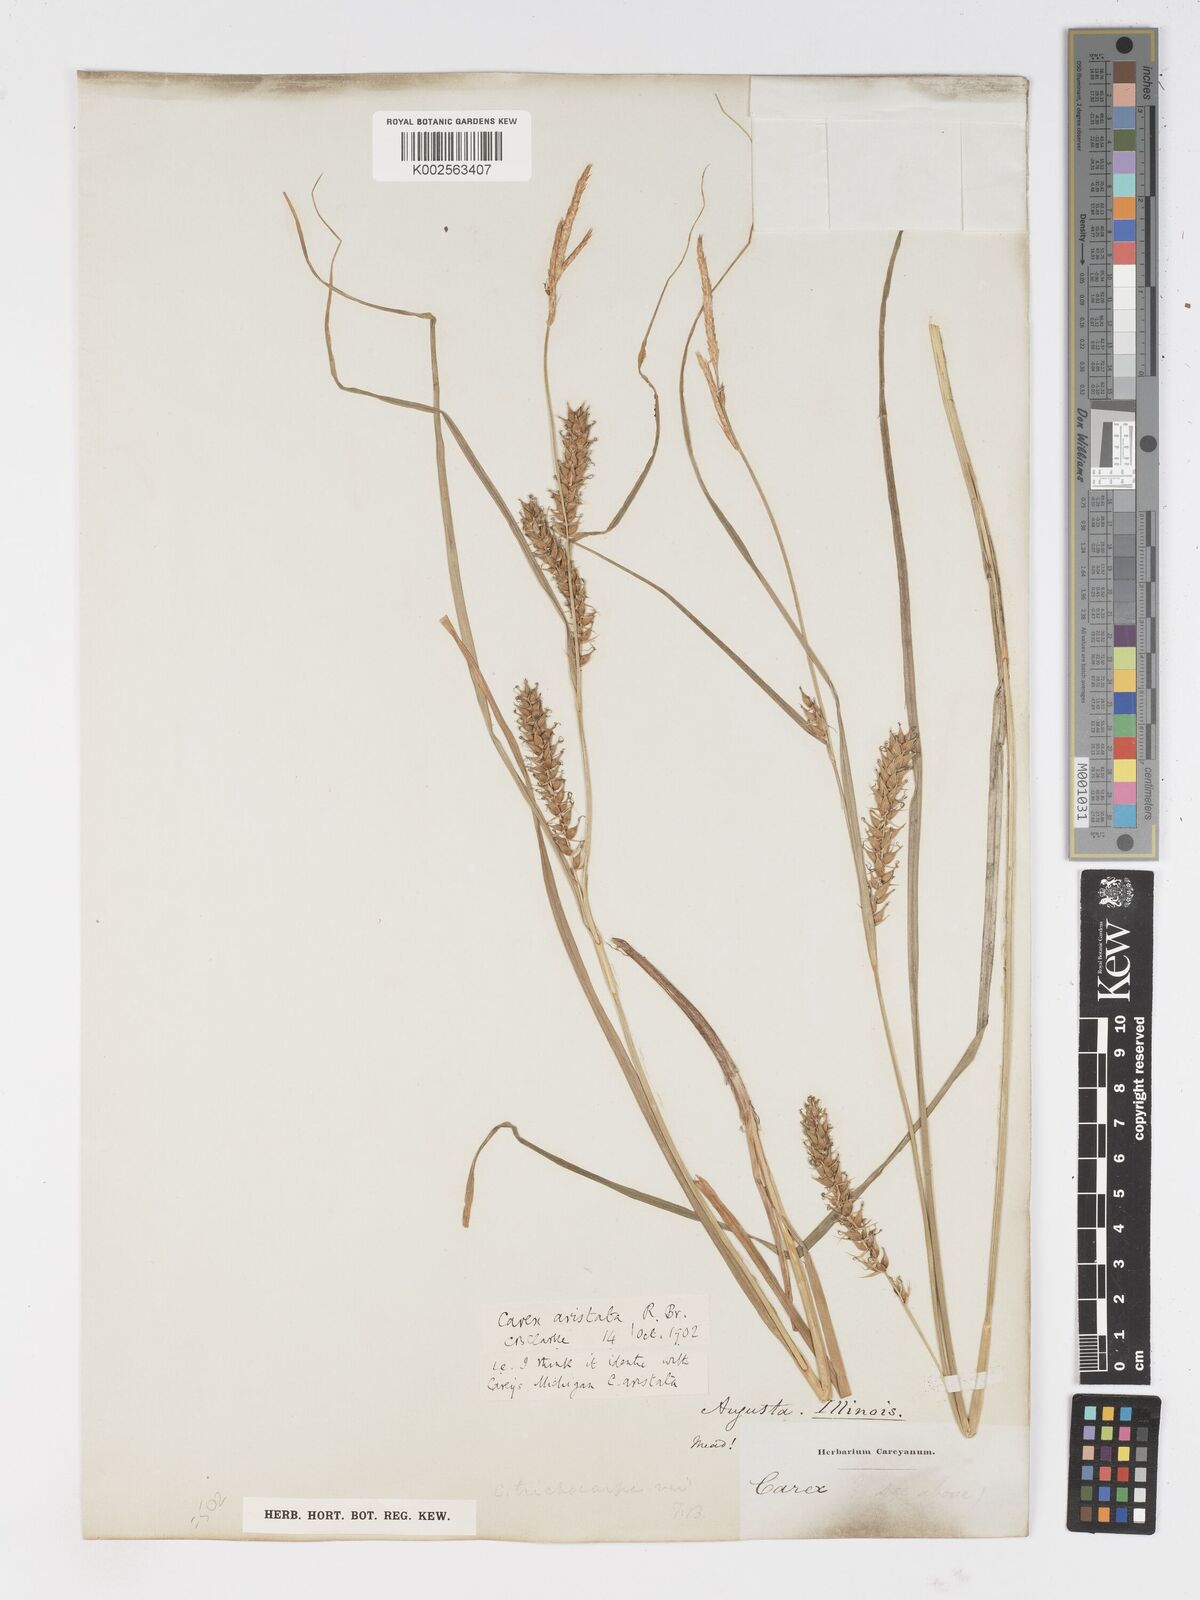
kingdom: Plantae
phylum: Tracheophyta
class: Liliopsida
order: Poales
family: Cyperaceae
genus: Carex
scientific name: Carex atherodes
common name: Wheat sedge
